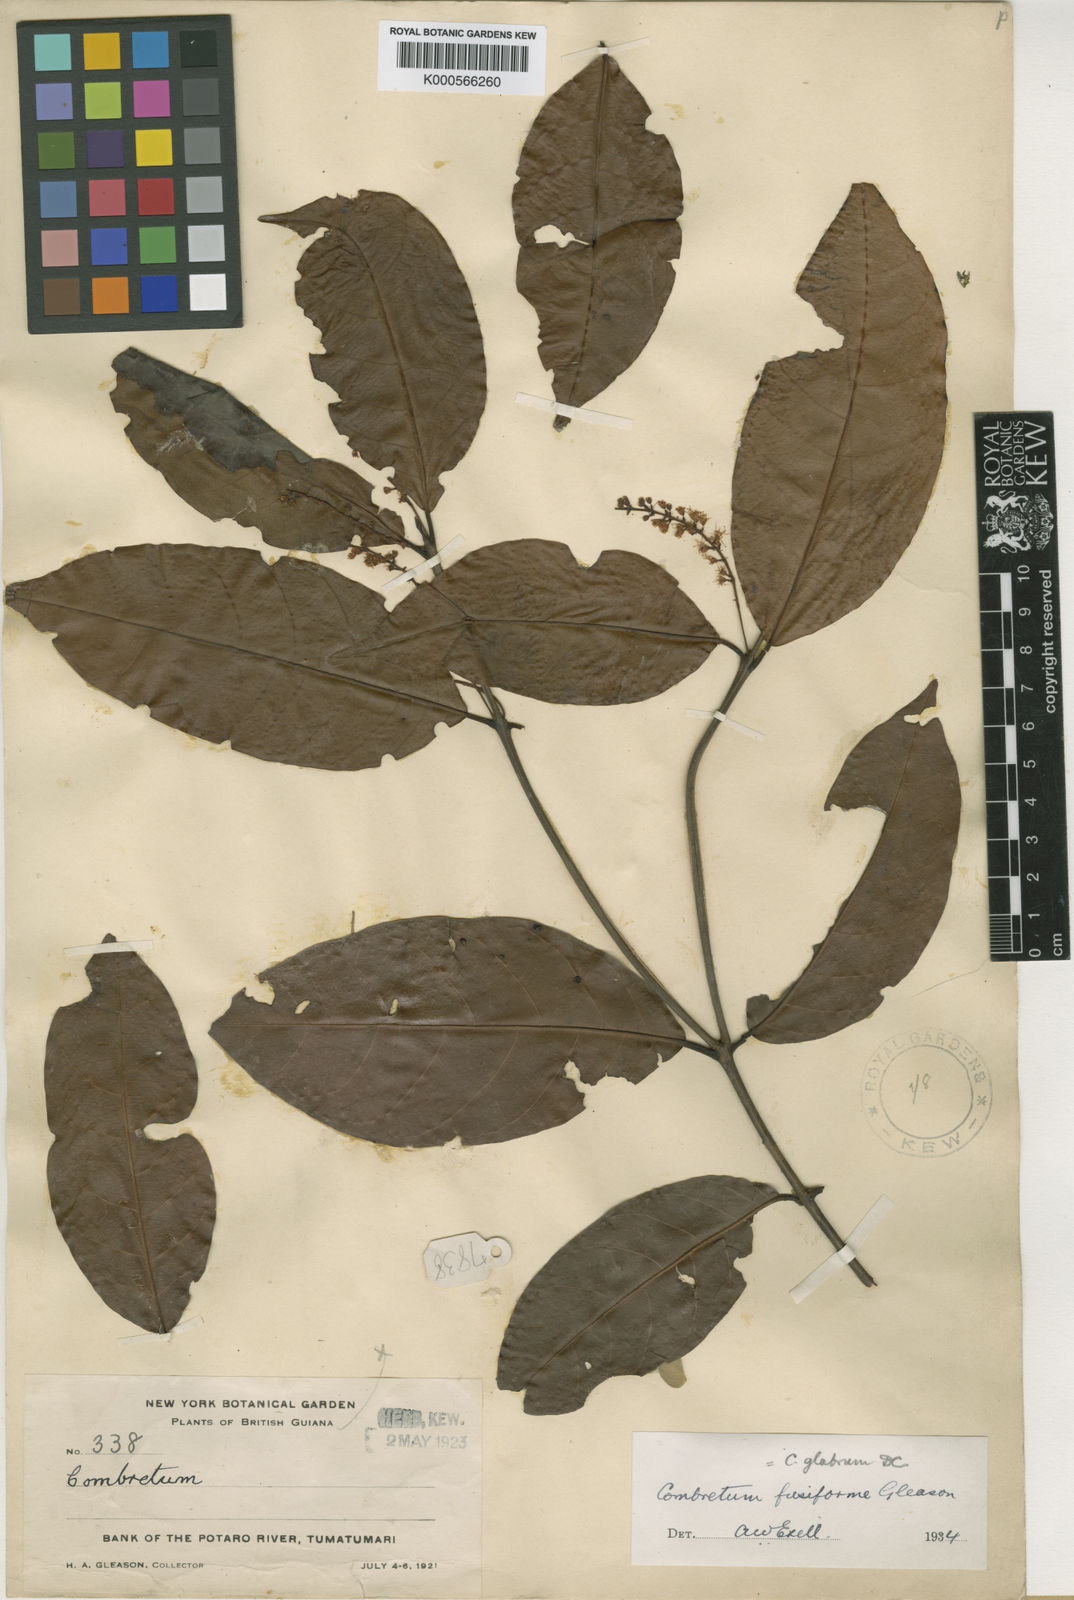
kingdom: Plantae
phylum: Tracheophyta
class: Magnoliopsida
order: Myrtales
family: Combretaceae
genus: Combretum
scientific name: Combretum glabrum
